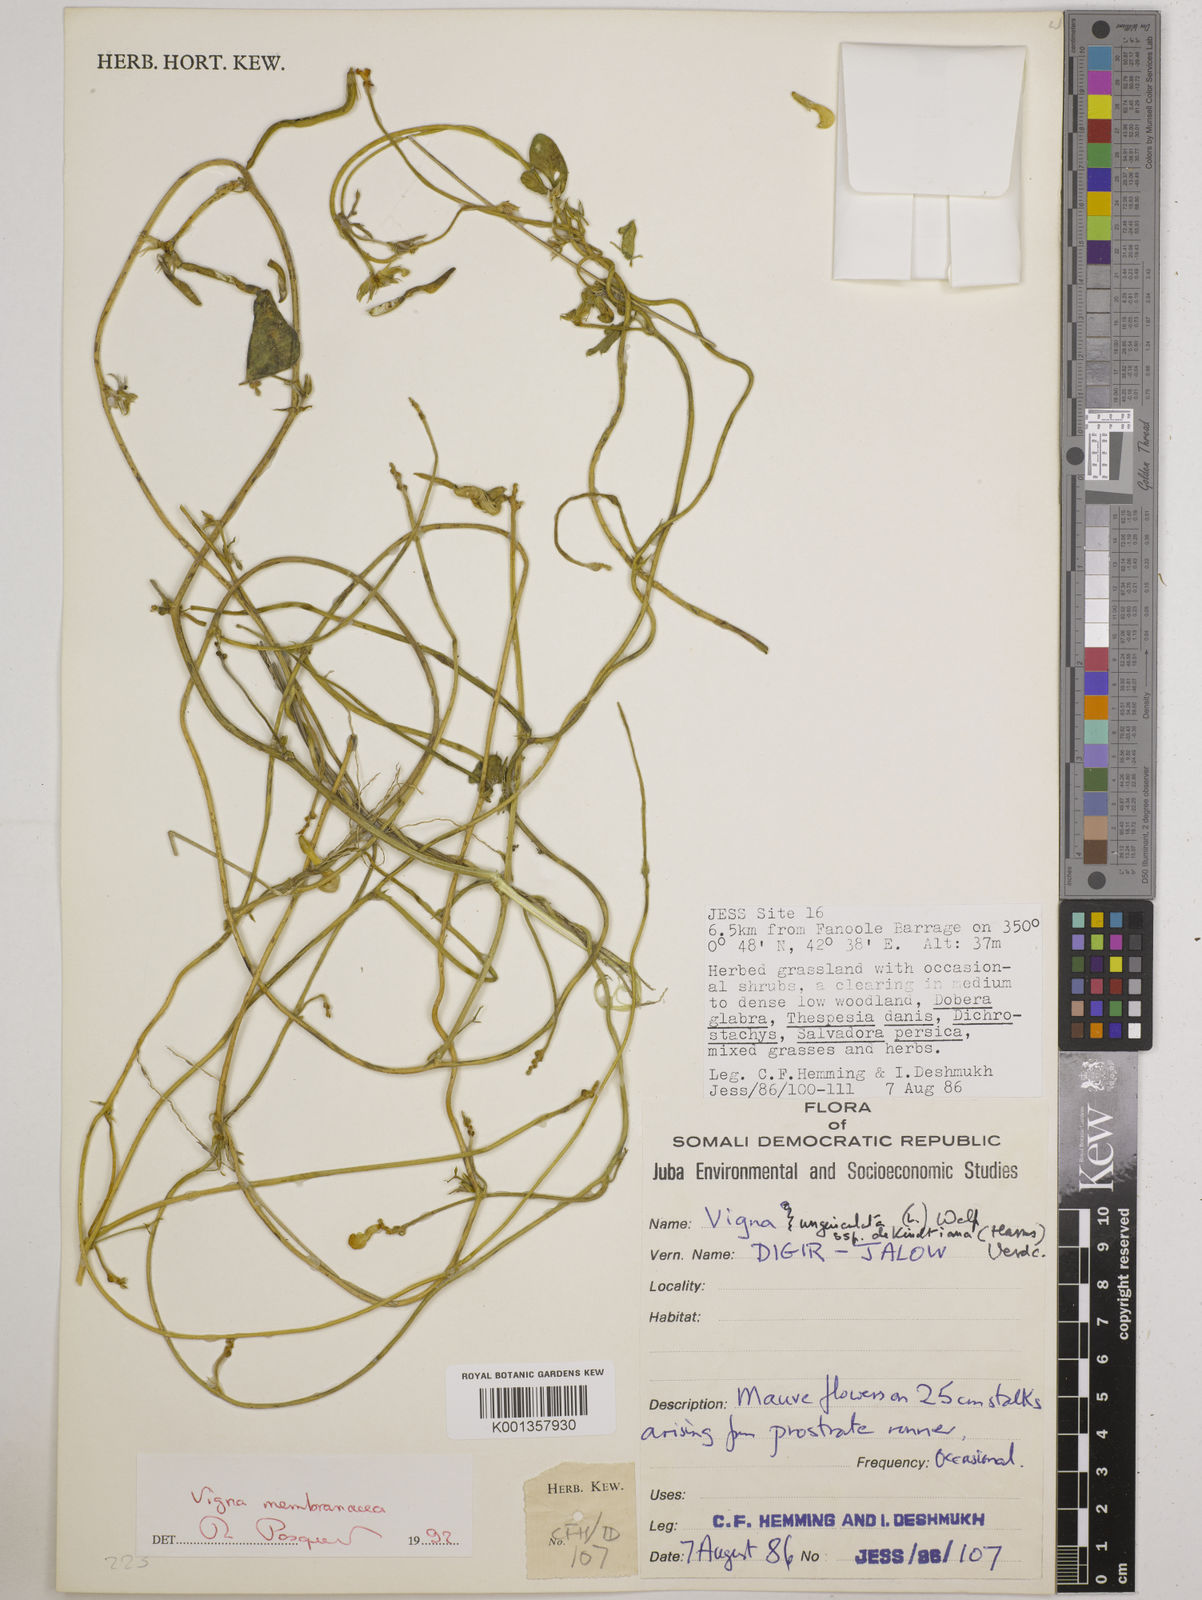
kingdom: Plantae
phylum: Tracheophyta
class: Magnoliopsida
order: Fabales
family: Fabaceae
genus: Vigna
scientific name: Vigna membranacea
